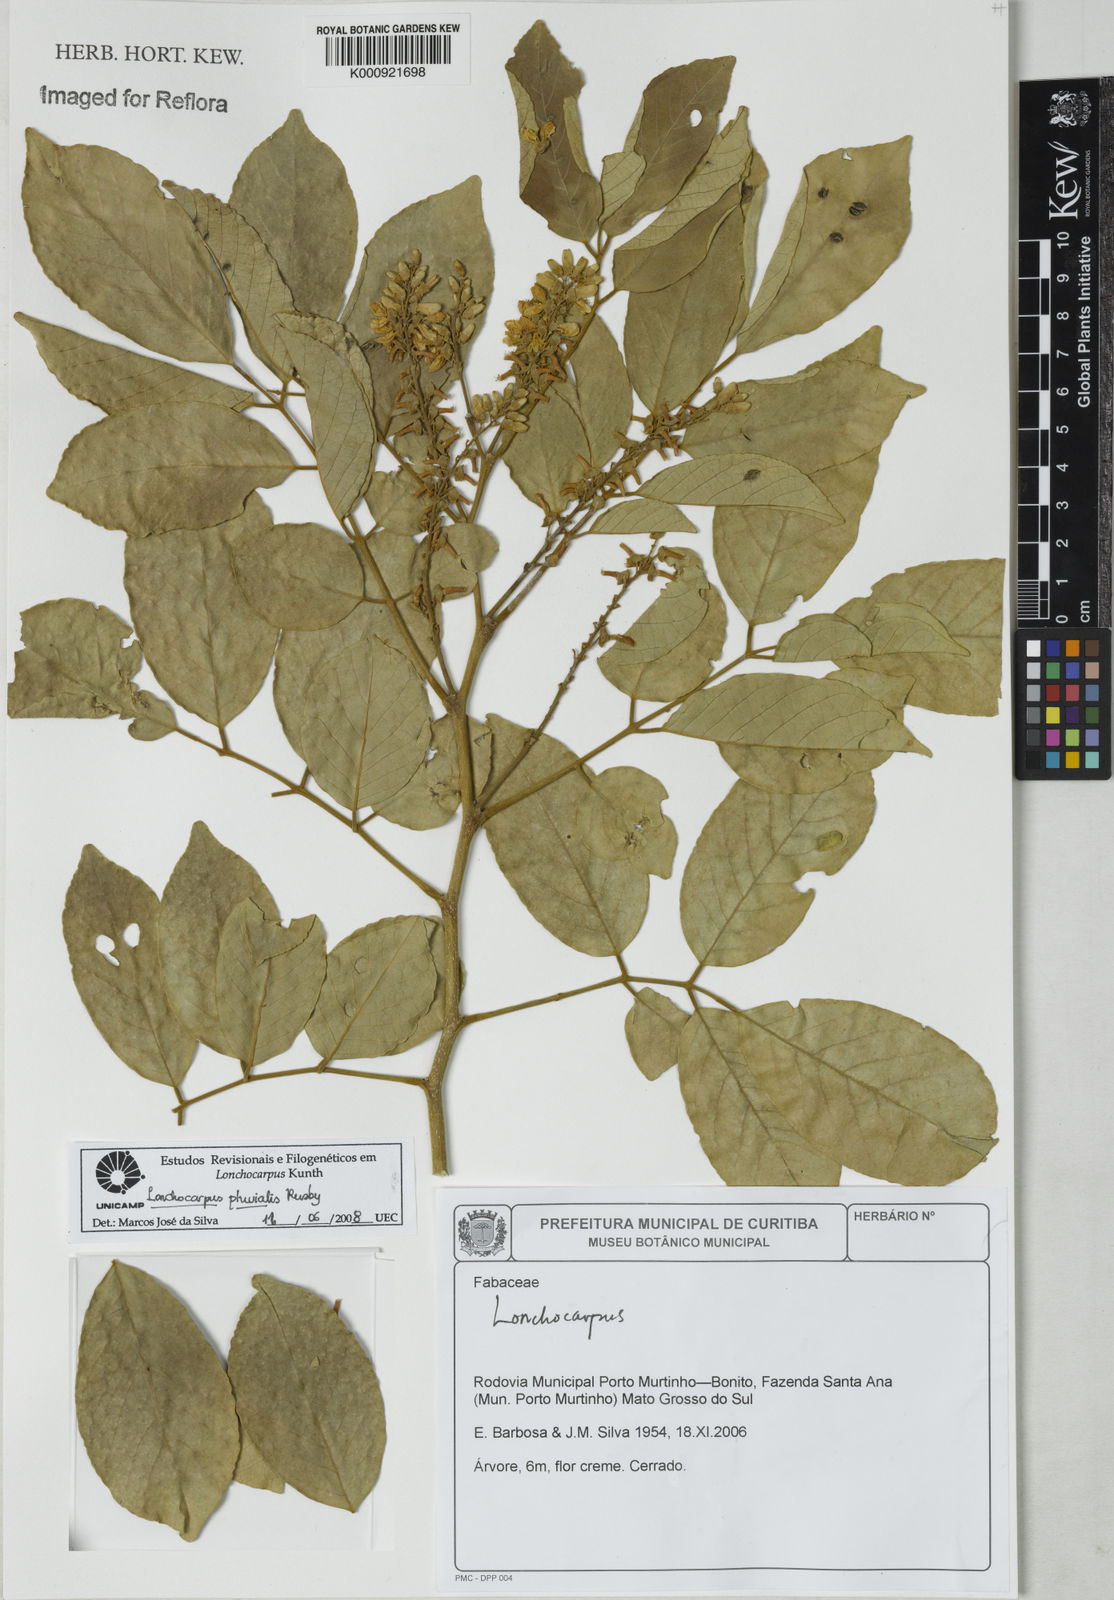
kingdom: Plantae
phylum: Tracheophyta
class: Magnoliopsida
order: Fabales
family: Fabaceae
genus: Lonchocarpus
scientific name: Lonchocarpus pluvialis
